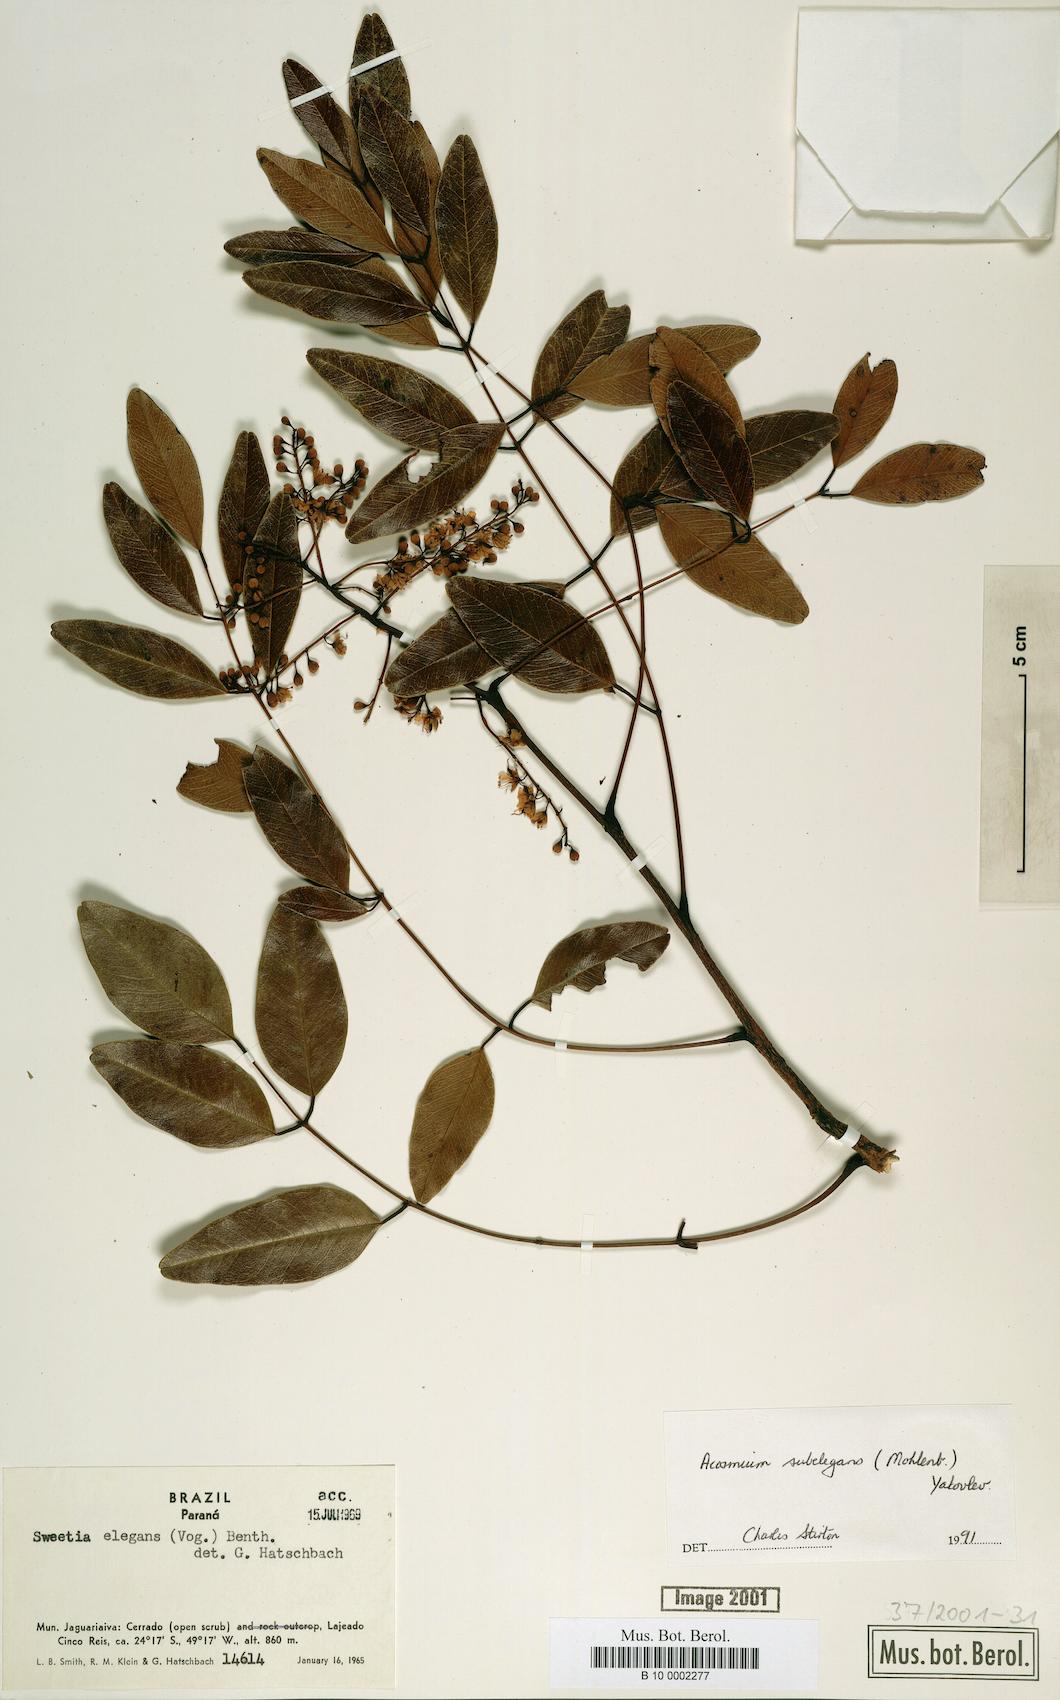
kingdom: Plantae
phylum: Tracheophyta
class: Magnoliopsida
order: Fabales
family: Fabaceae
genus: Leptolobium
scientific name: Leptolobium elegans
